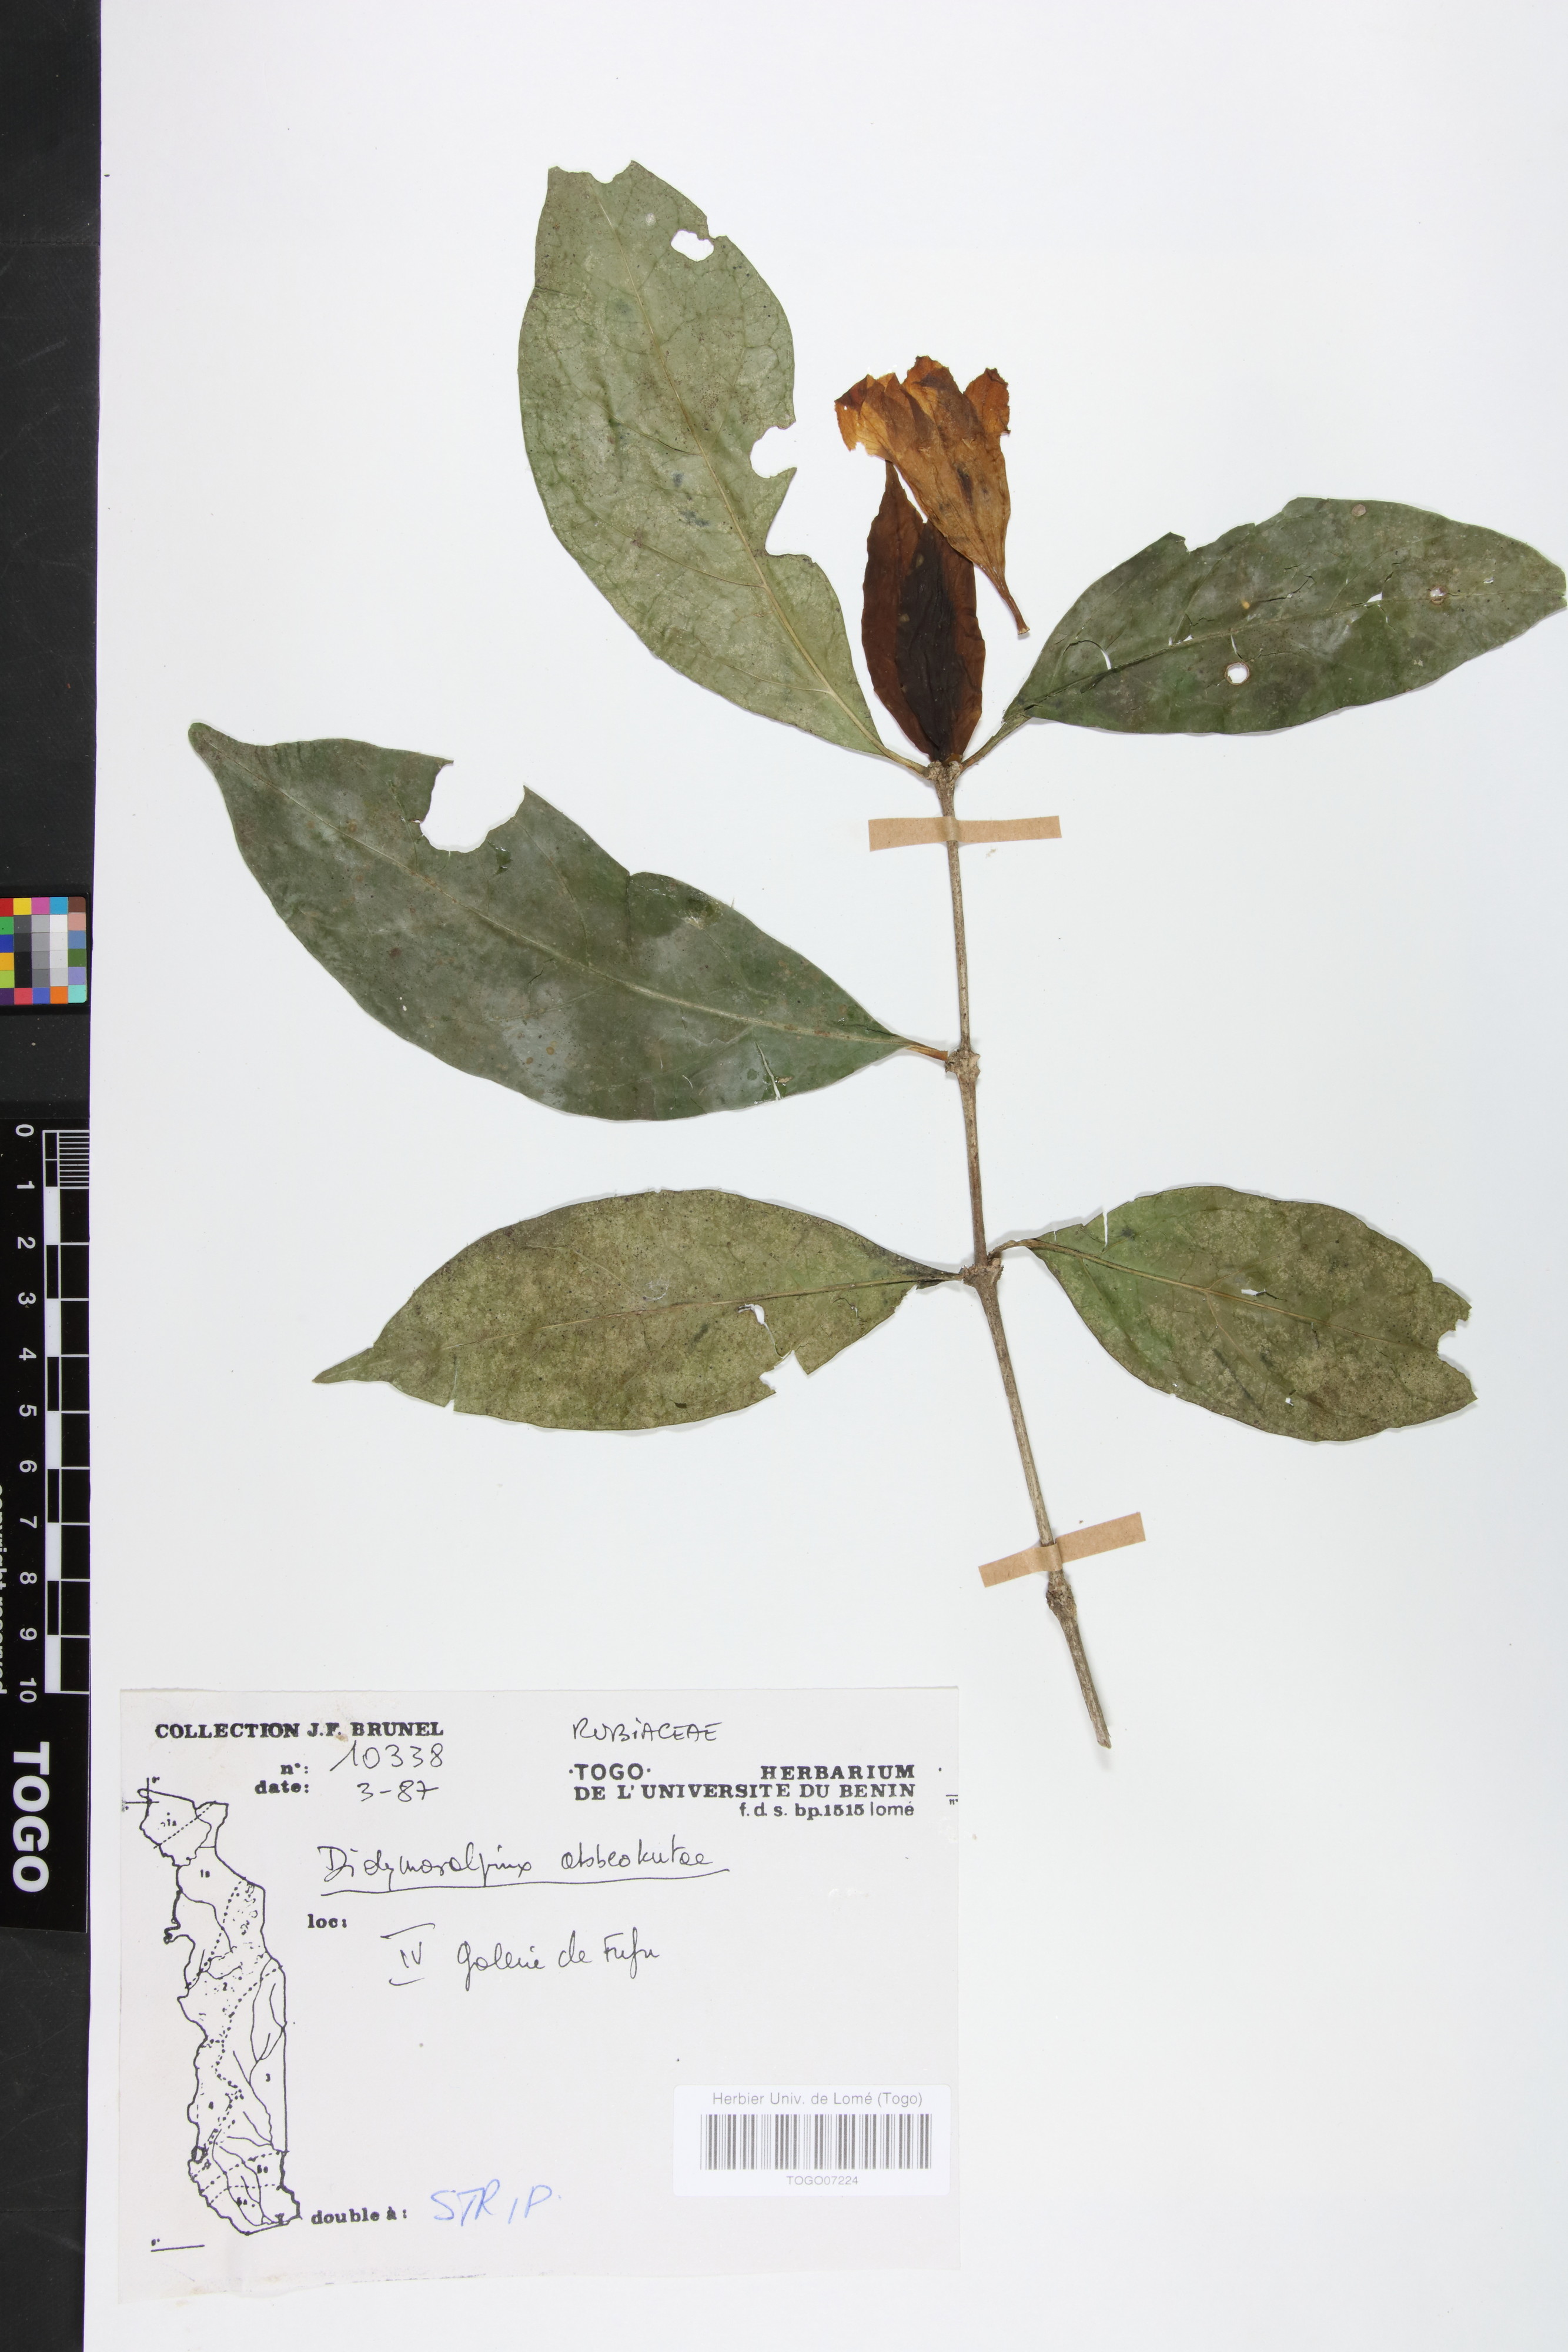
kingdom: Plantae
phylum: Tracheophyta
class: Magnoliopsida
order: Gentianales
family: Rubiaceae
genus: Didymosalpinx
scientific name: Didymosalpinx abbeokutae
